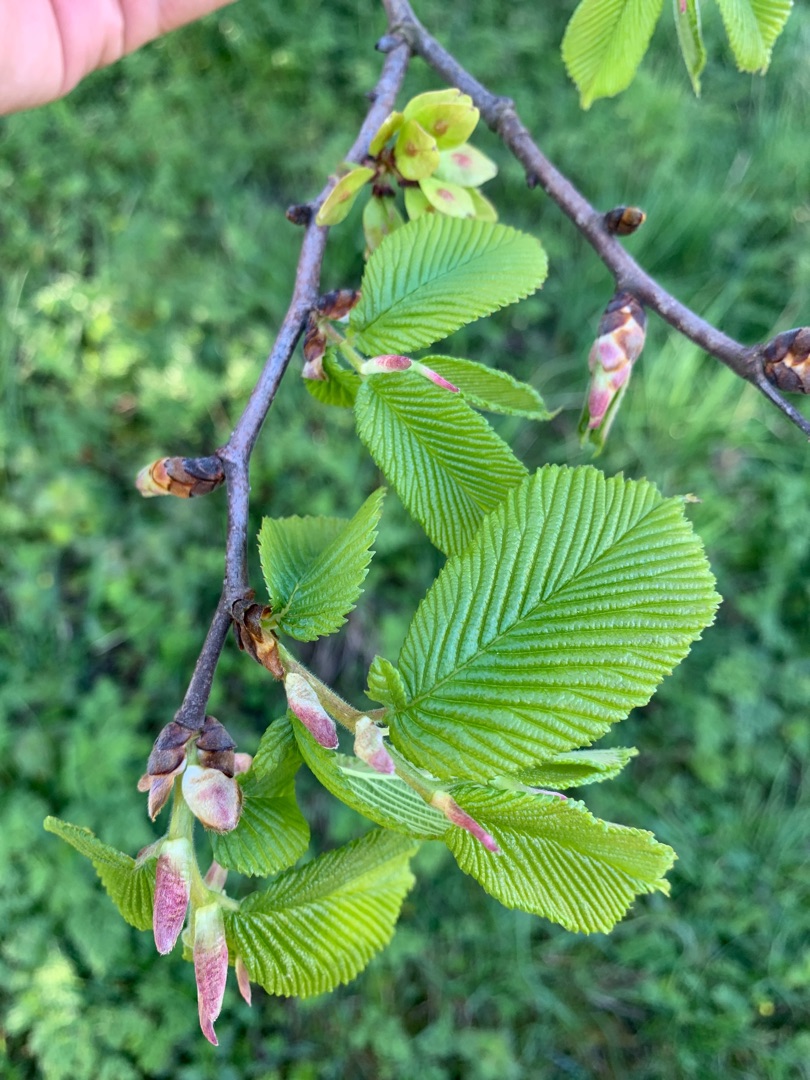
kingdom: Plantae
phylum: Tracheophyta
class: Magnoliopsida
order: Rosales
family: Ulmaceae
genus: Ulmus
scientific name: Ulmus glabra
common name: Skov-elm/storbladet elm
